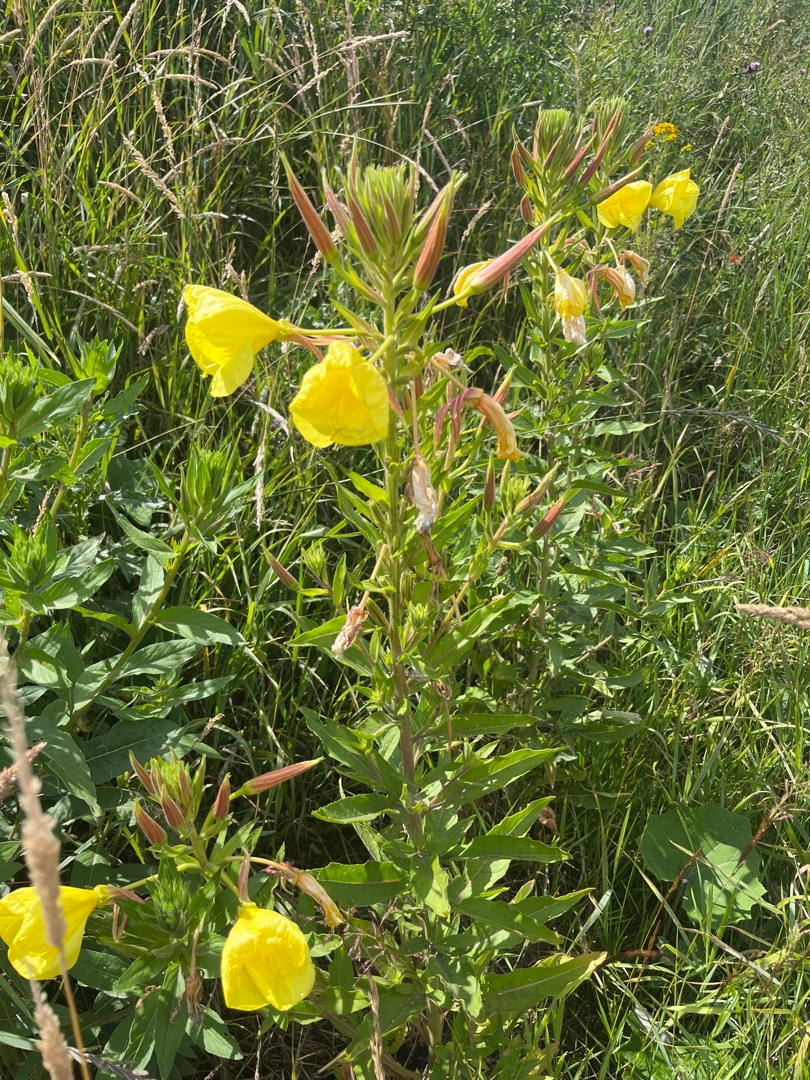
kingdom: Plantae
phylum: Tracheophyta
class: Magnoliopsida
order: Myrtales
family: Onagraceae
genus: Oenothera
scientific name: Oenothera glazioviana
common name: Kæmpe-natlys
